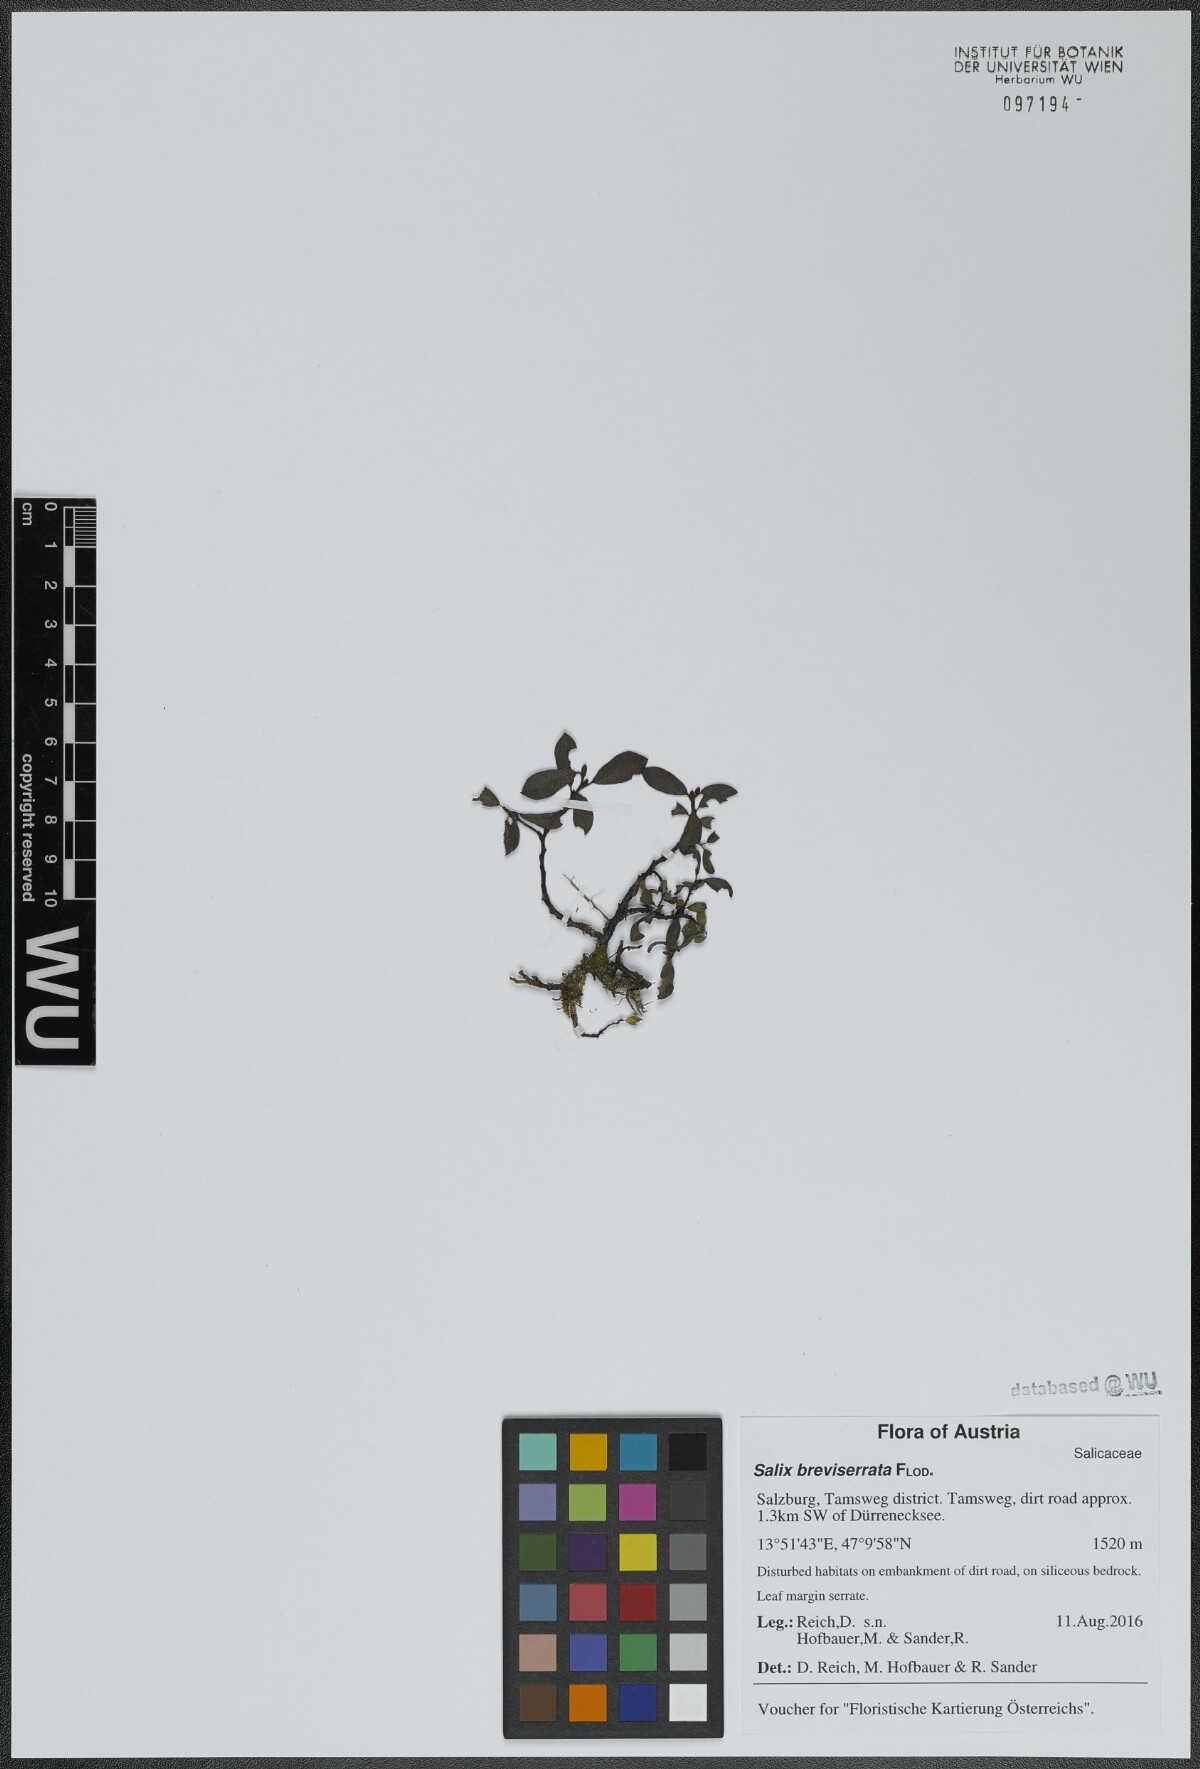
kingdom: Plantae
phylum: Tracheophyta
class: Magnoliopsida
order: Malpighiales
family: Salicaceae
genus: Salix
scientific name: Salix breviserrata
